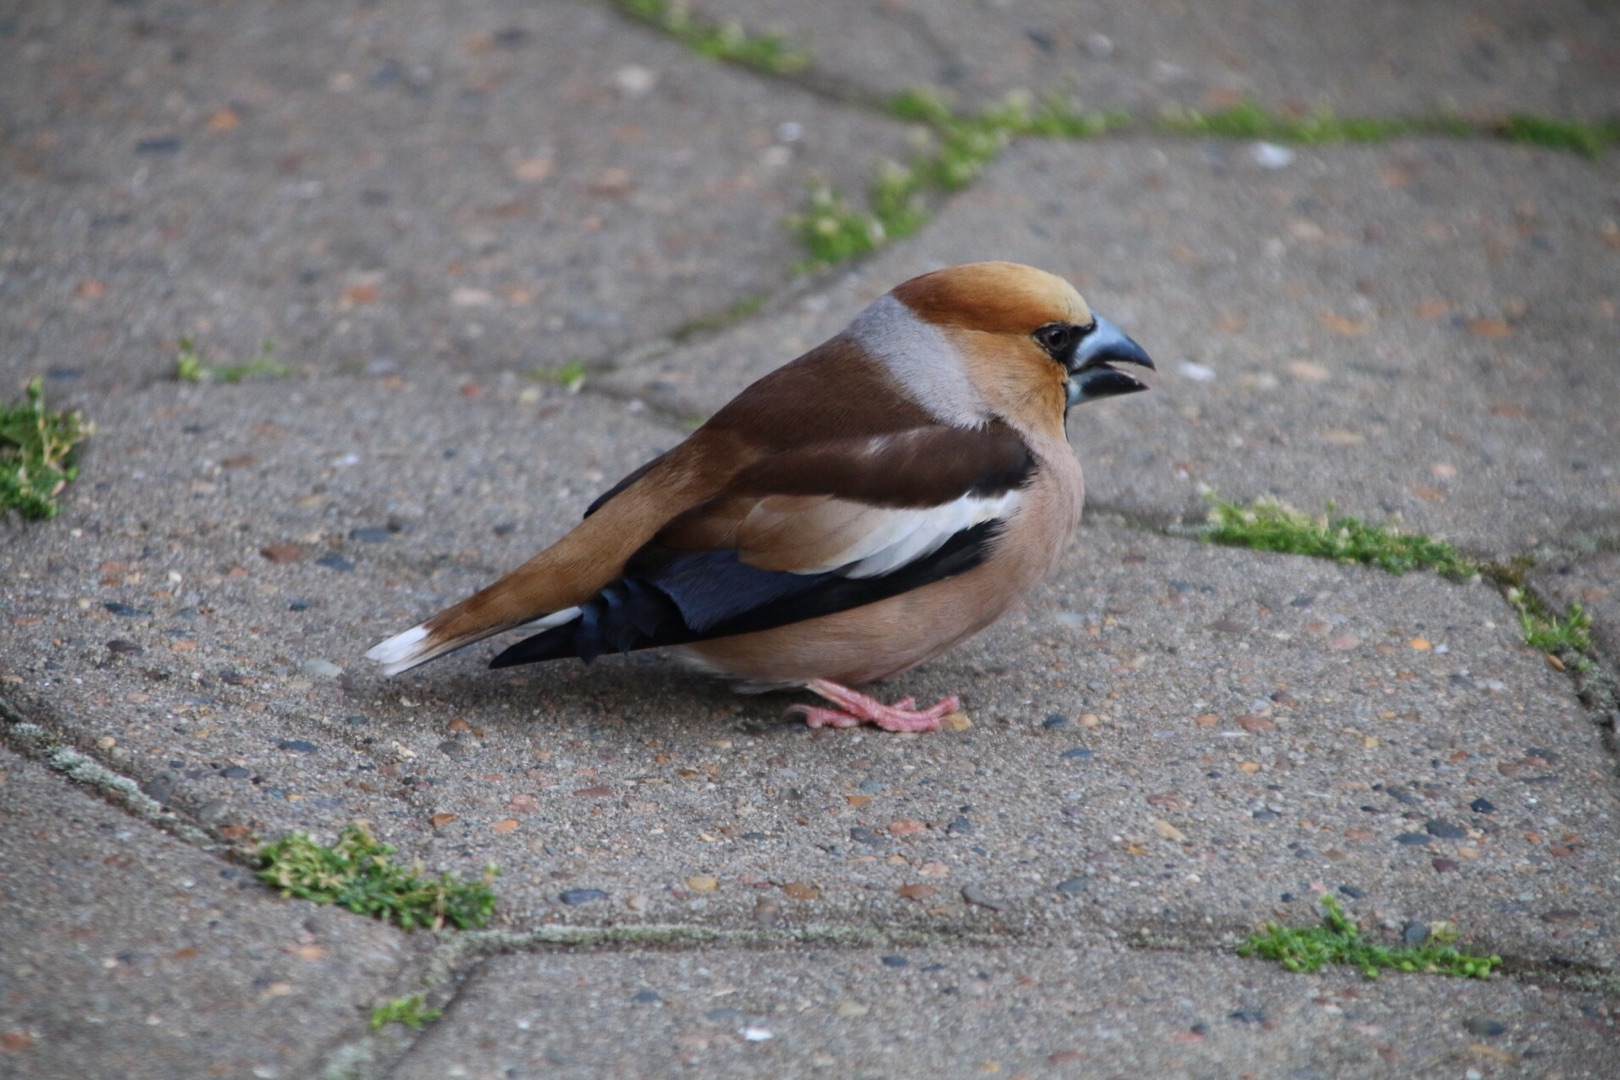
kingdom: Animalia
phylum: Chordata
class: Aves
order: Passeriformes
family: Fringillidae
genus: Coccothraustes
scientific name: Coccothraustes coccothraustes
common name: Kernebider
